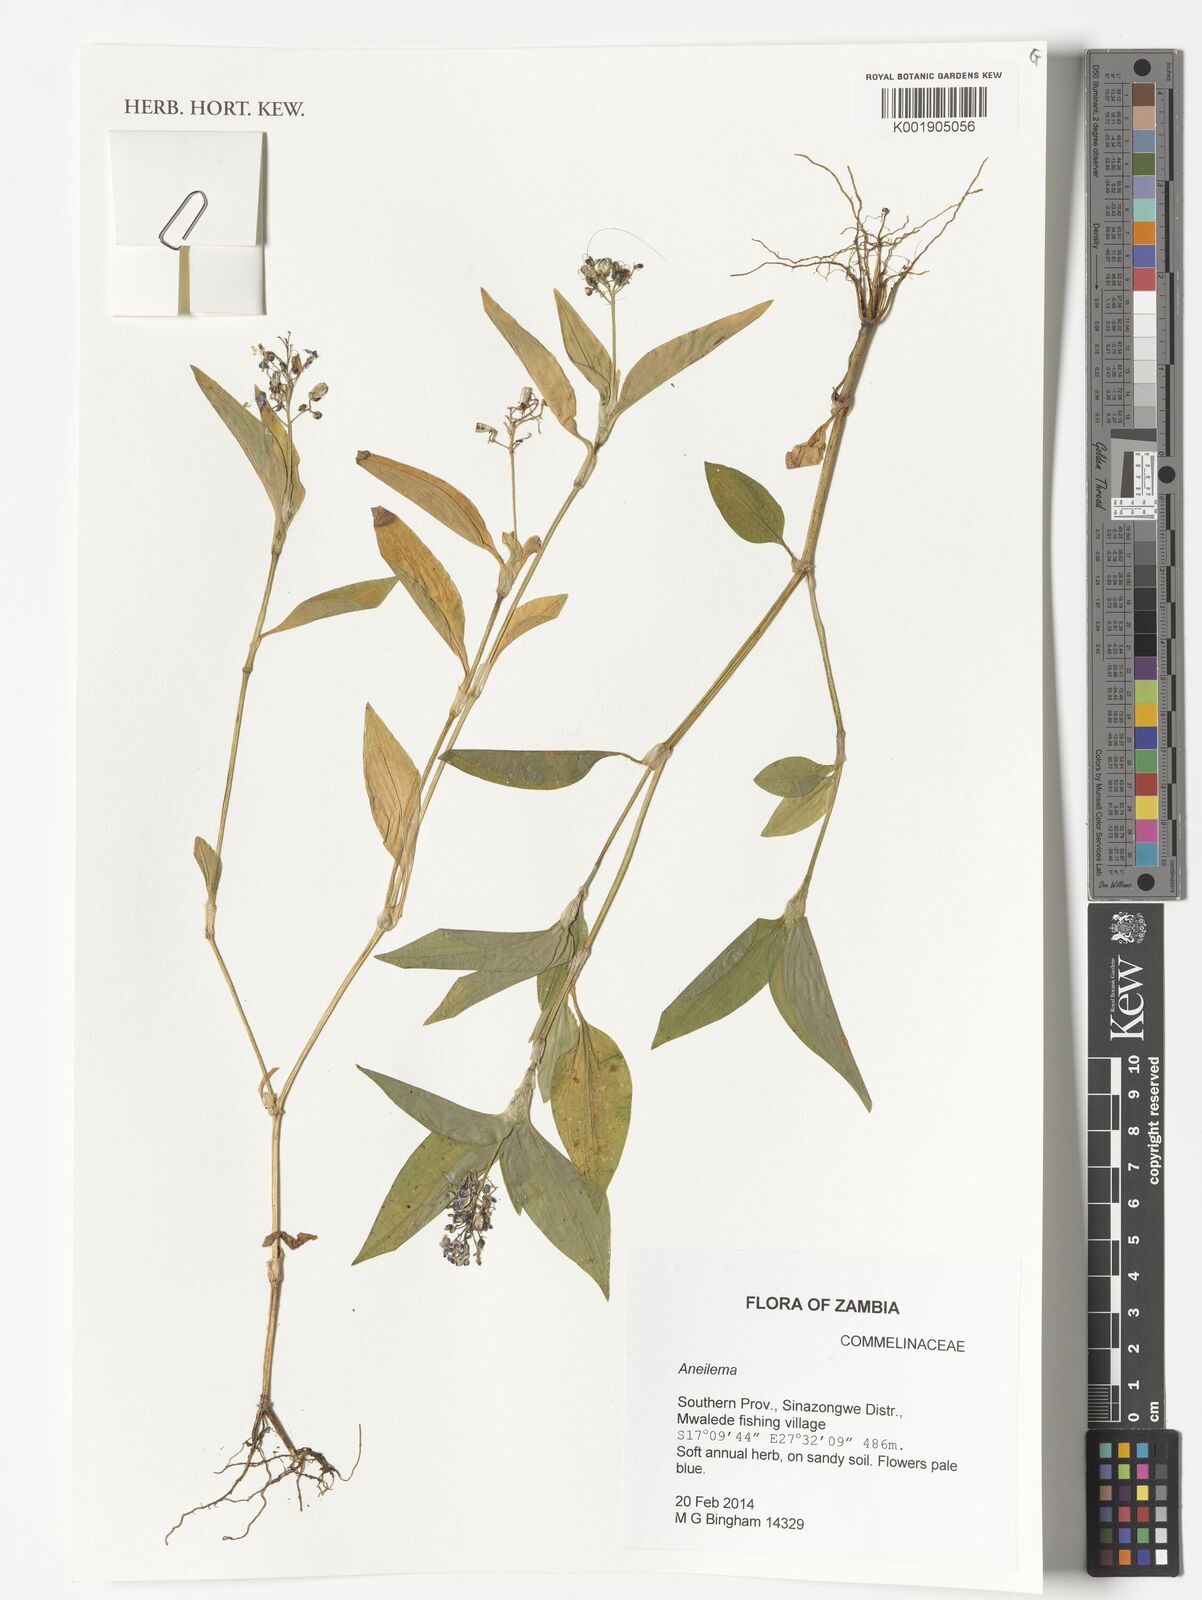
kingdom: Plantae
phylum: Tracheophyta
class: Liliopsida
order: Commelinales
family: Commelinaceae
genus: Aneilema
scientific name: Aneilema
